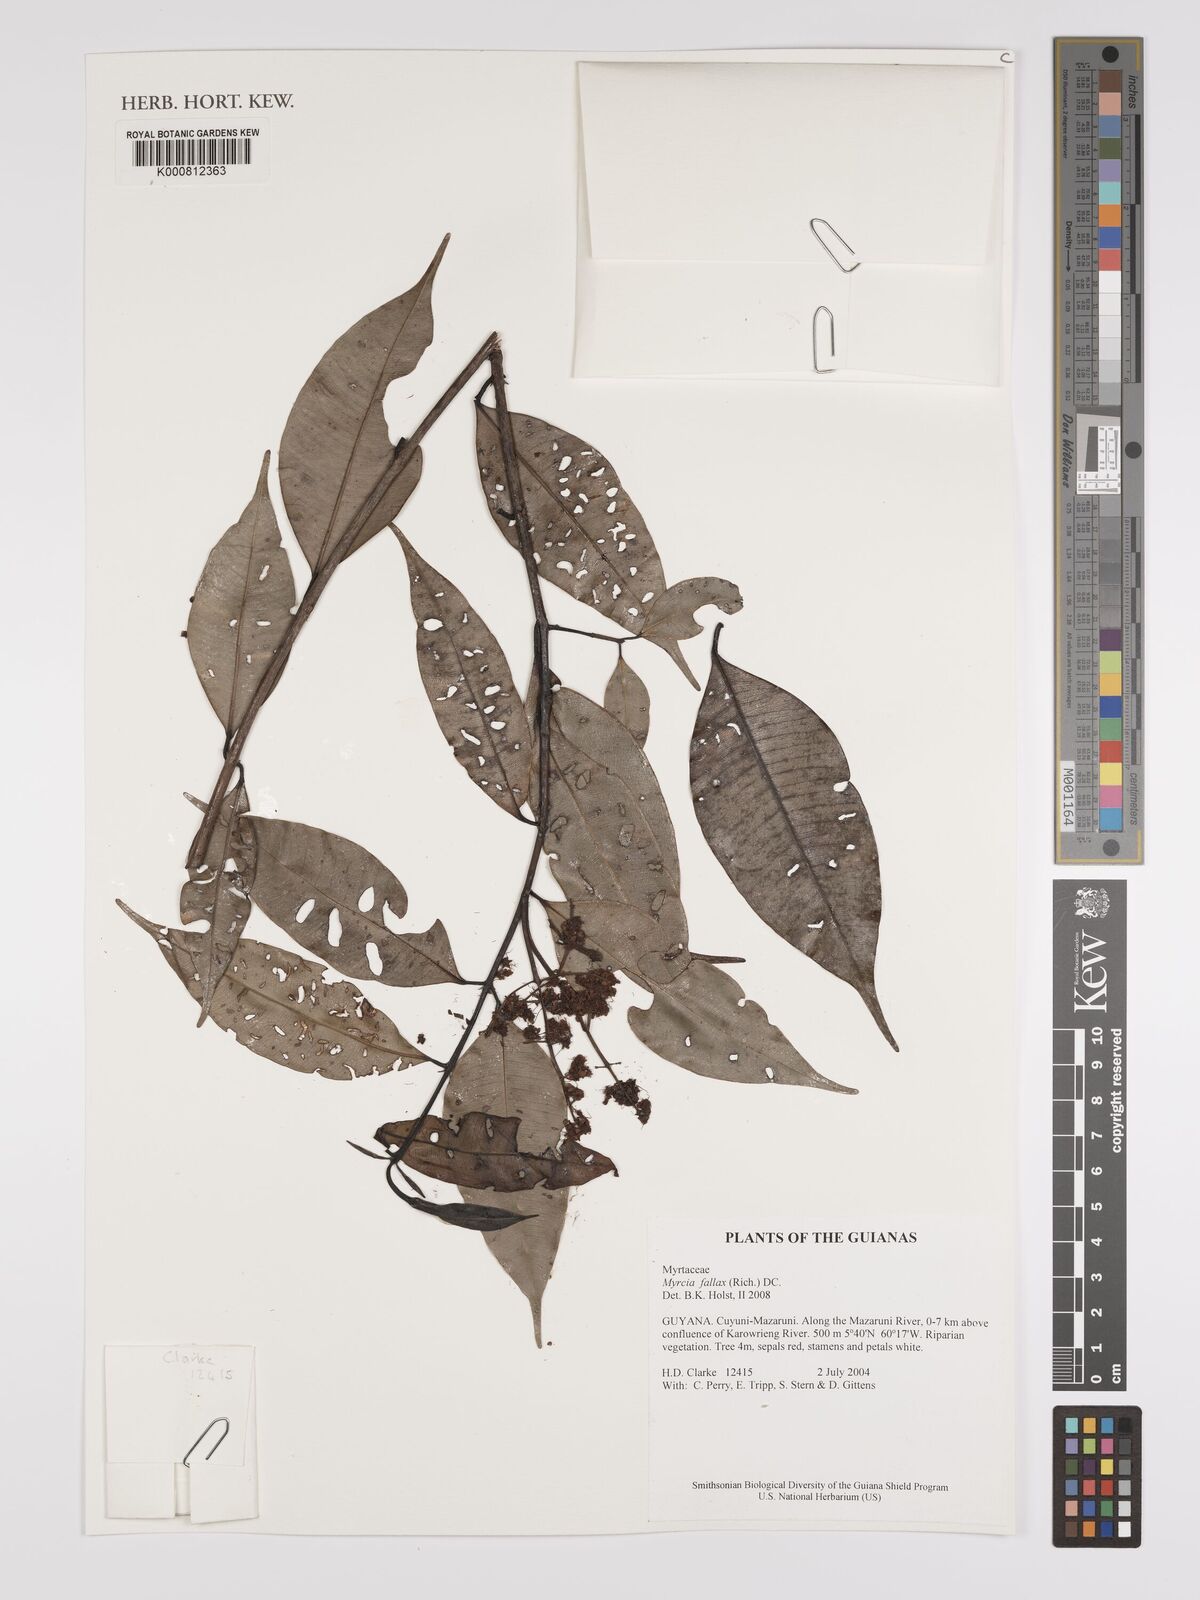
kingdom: Plantae
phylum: Tracheophyta
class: Magnoliopsida
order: Myrtales
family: Myrtaceae
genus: Myrcia
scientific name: Myrcia splendens
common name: Surinam cherry
